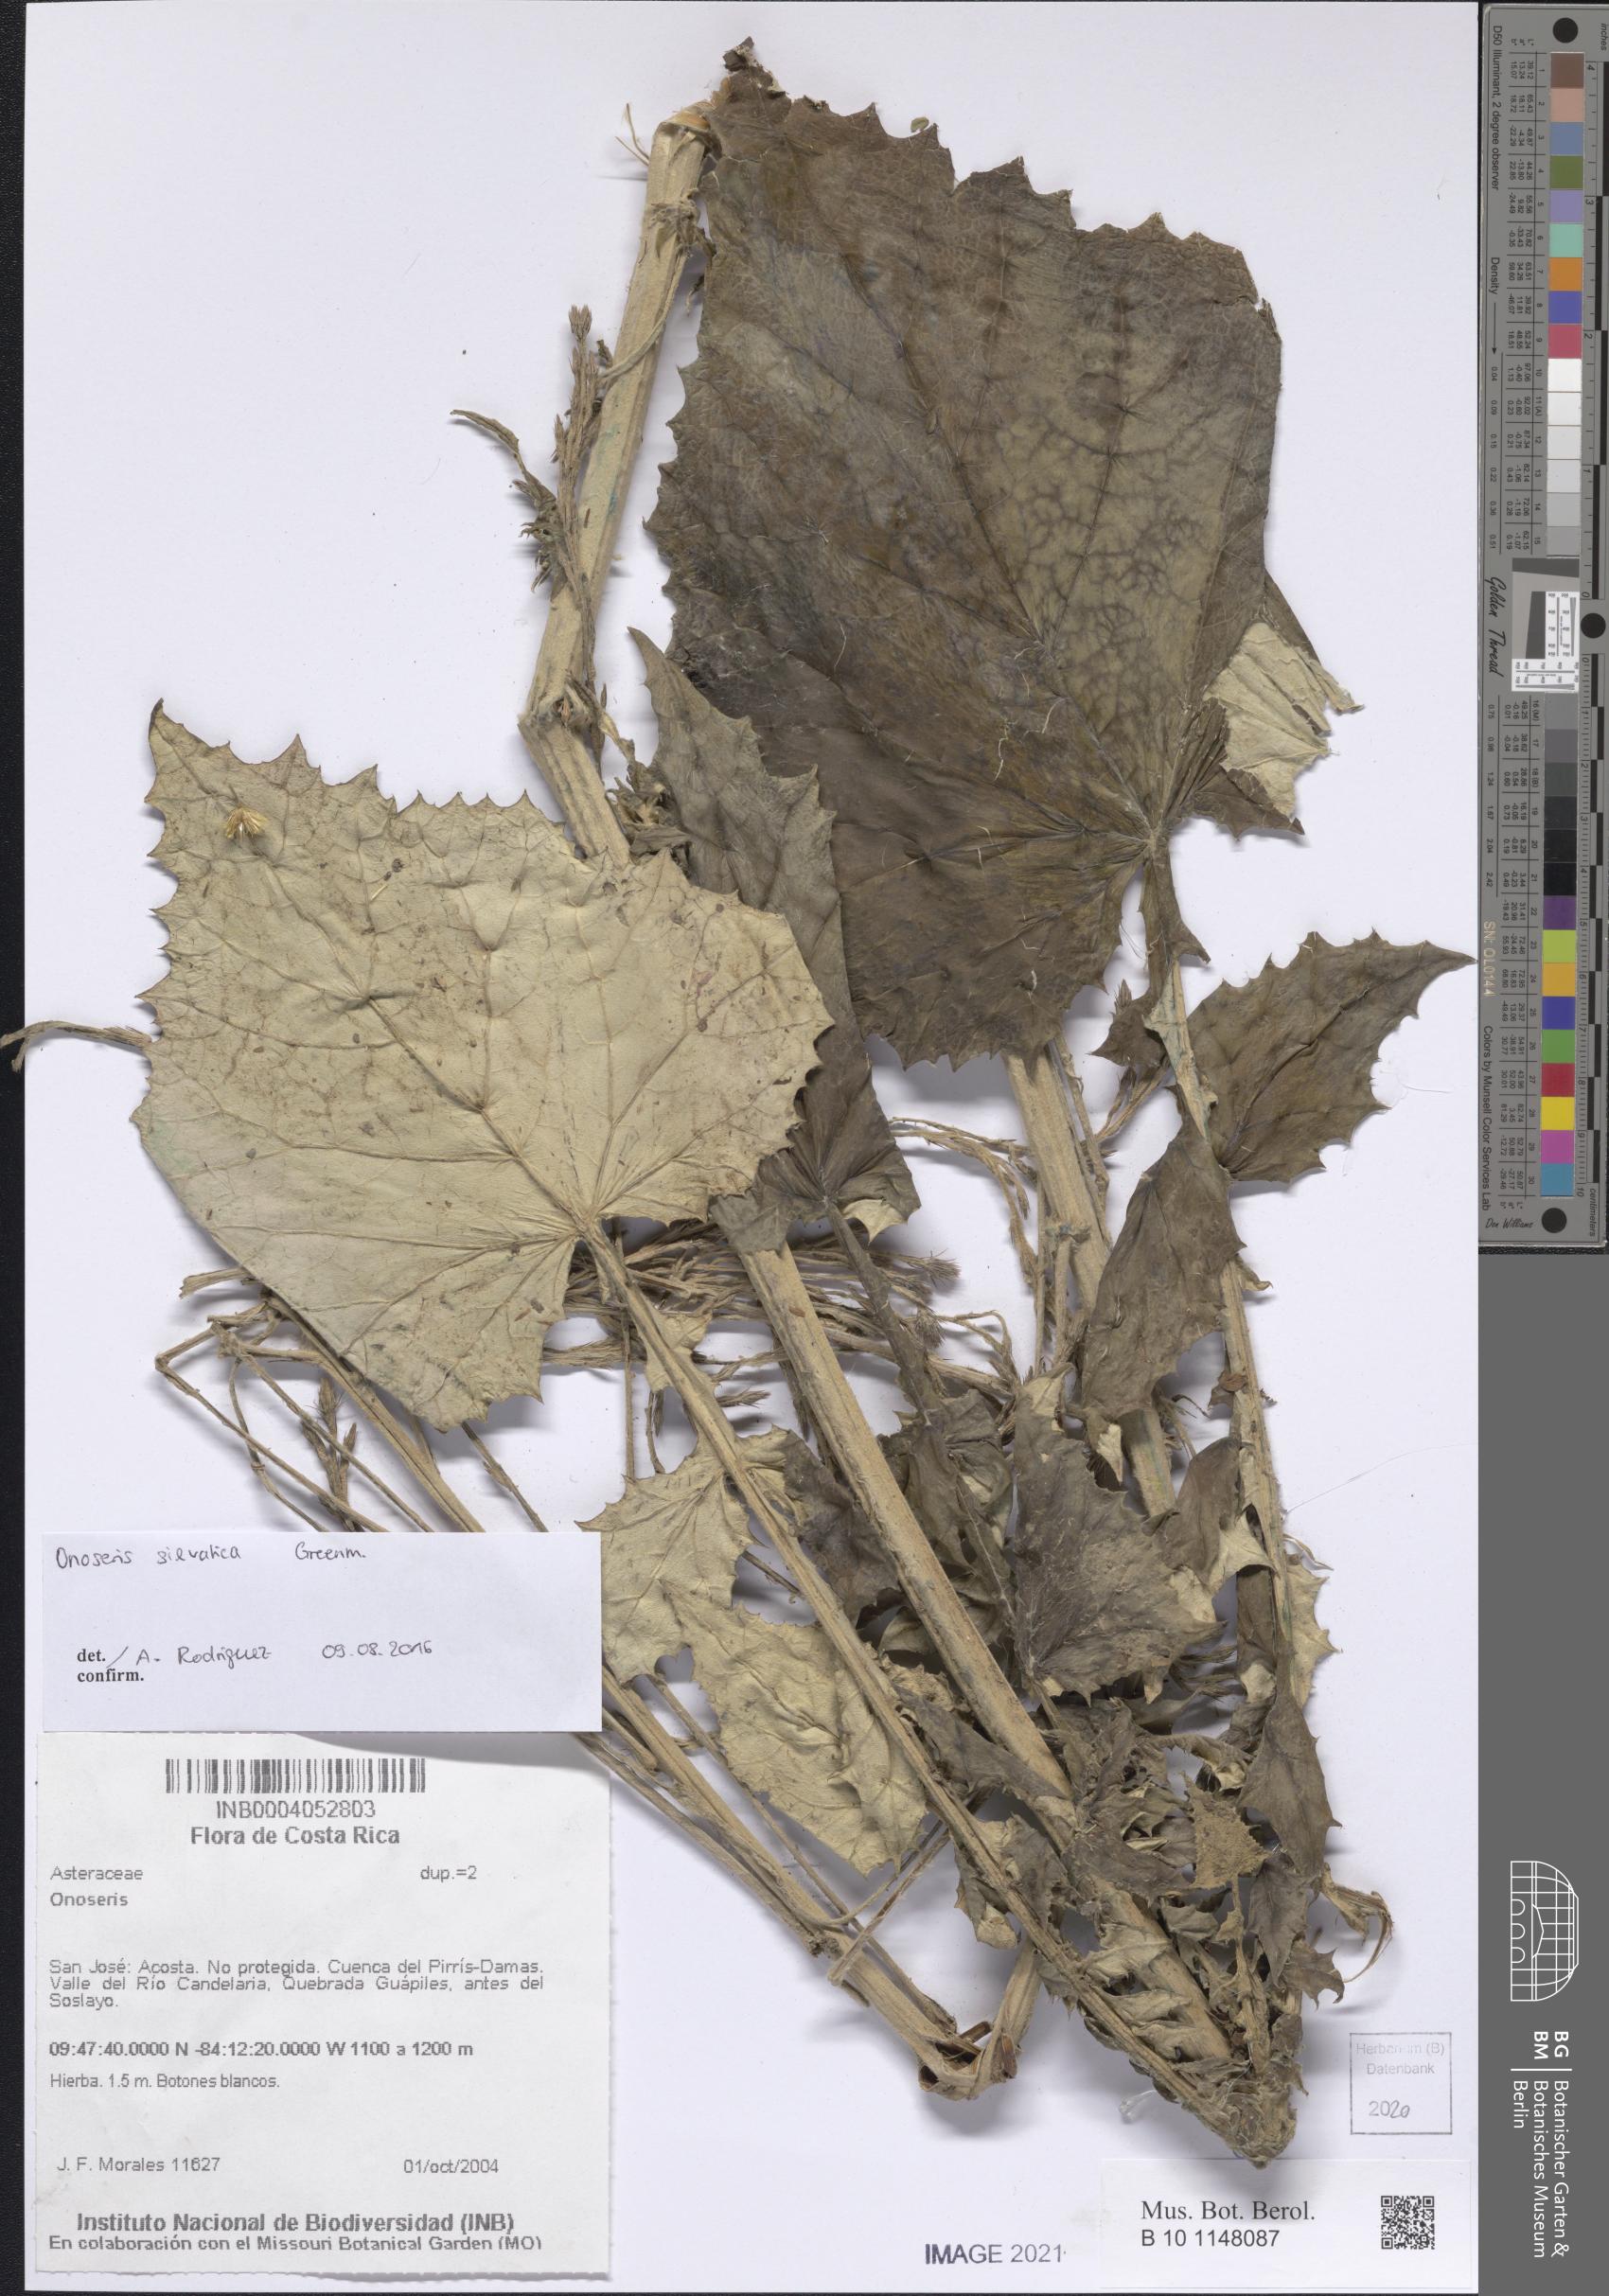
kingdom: Plantae
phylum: Tracheophyta
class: Magnoliopsida
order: Asterales
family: Asteraceae
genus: Onoseris
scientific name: Onoseris
